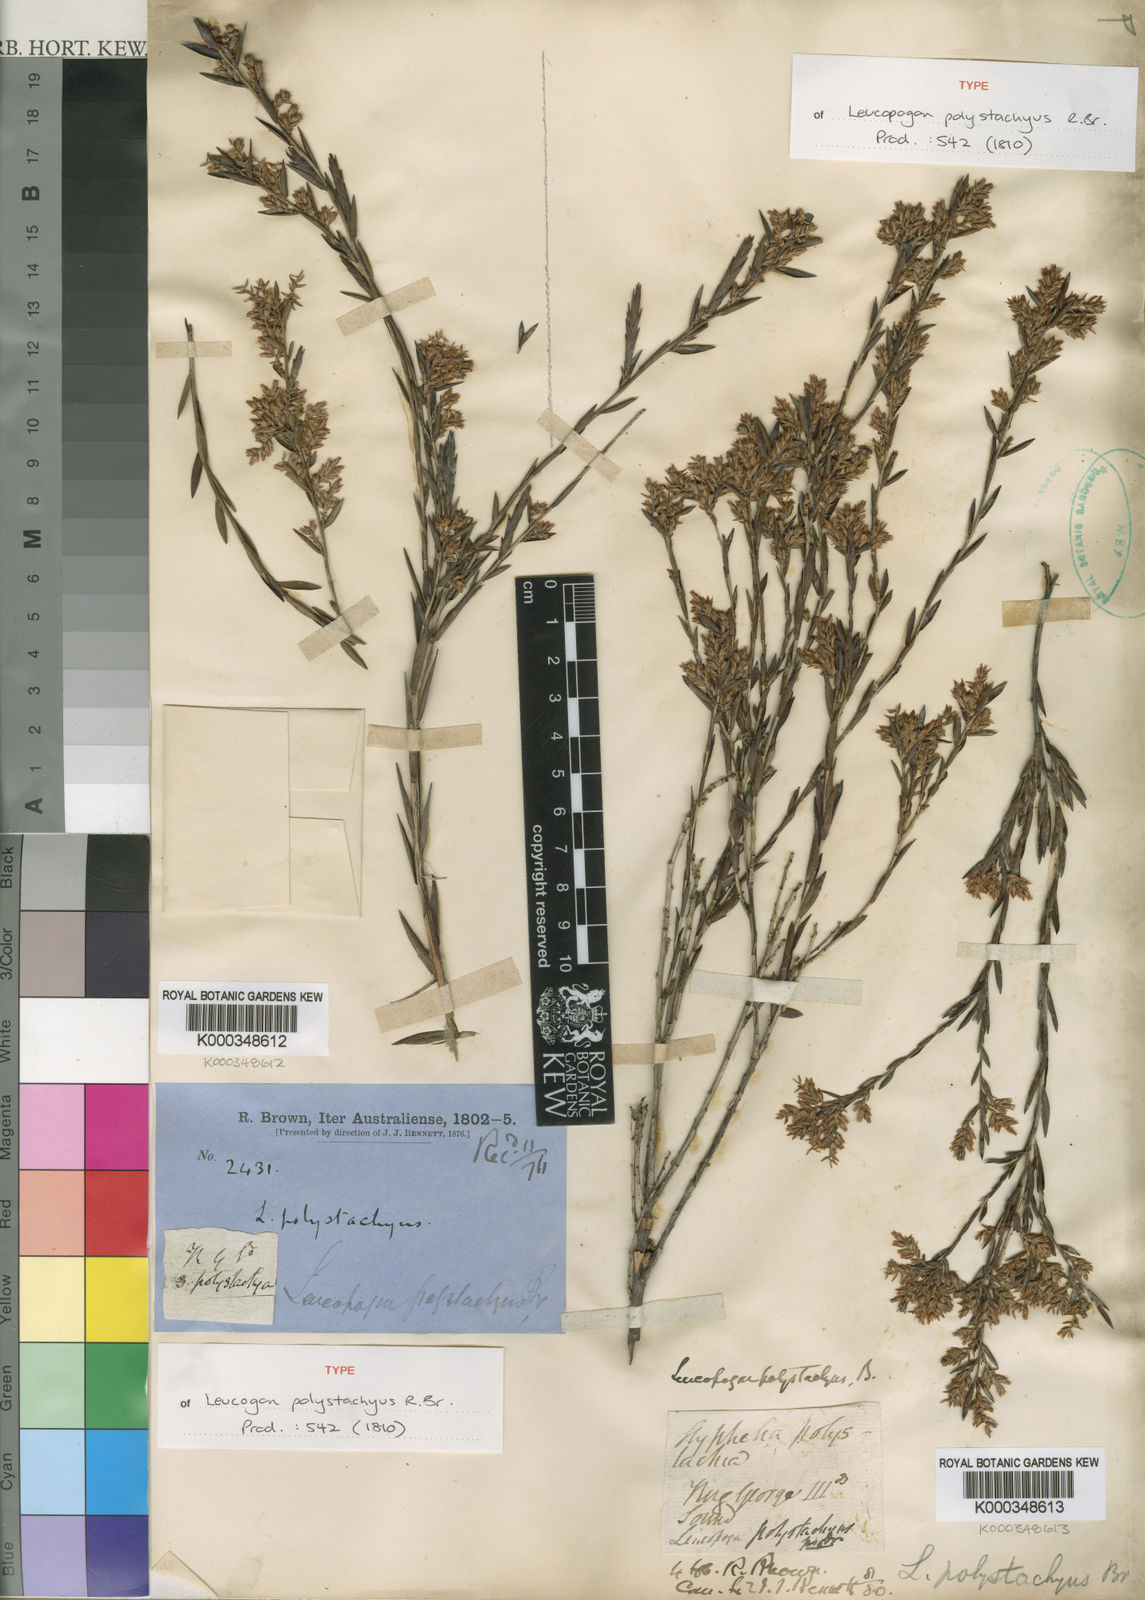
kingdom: Plantae
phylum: Tracheophyta
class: Magnoliopsida
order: Ericales
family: Ericaceae
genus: Leucopogon
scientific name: Leucopogon polystachyus
